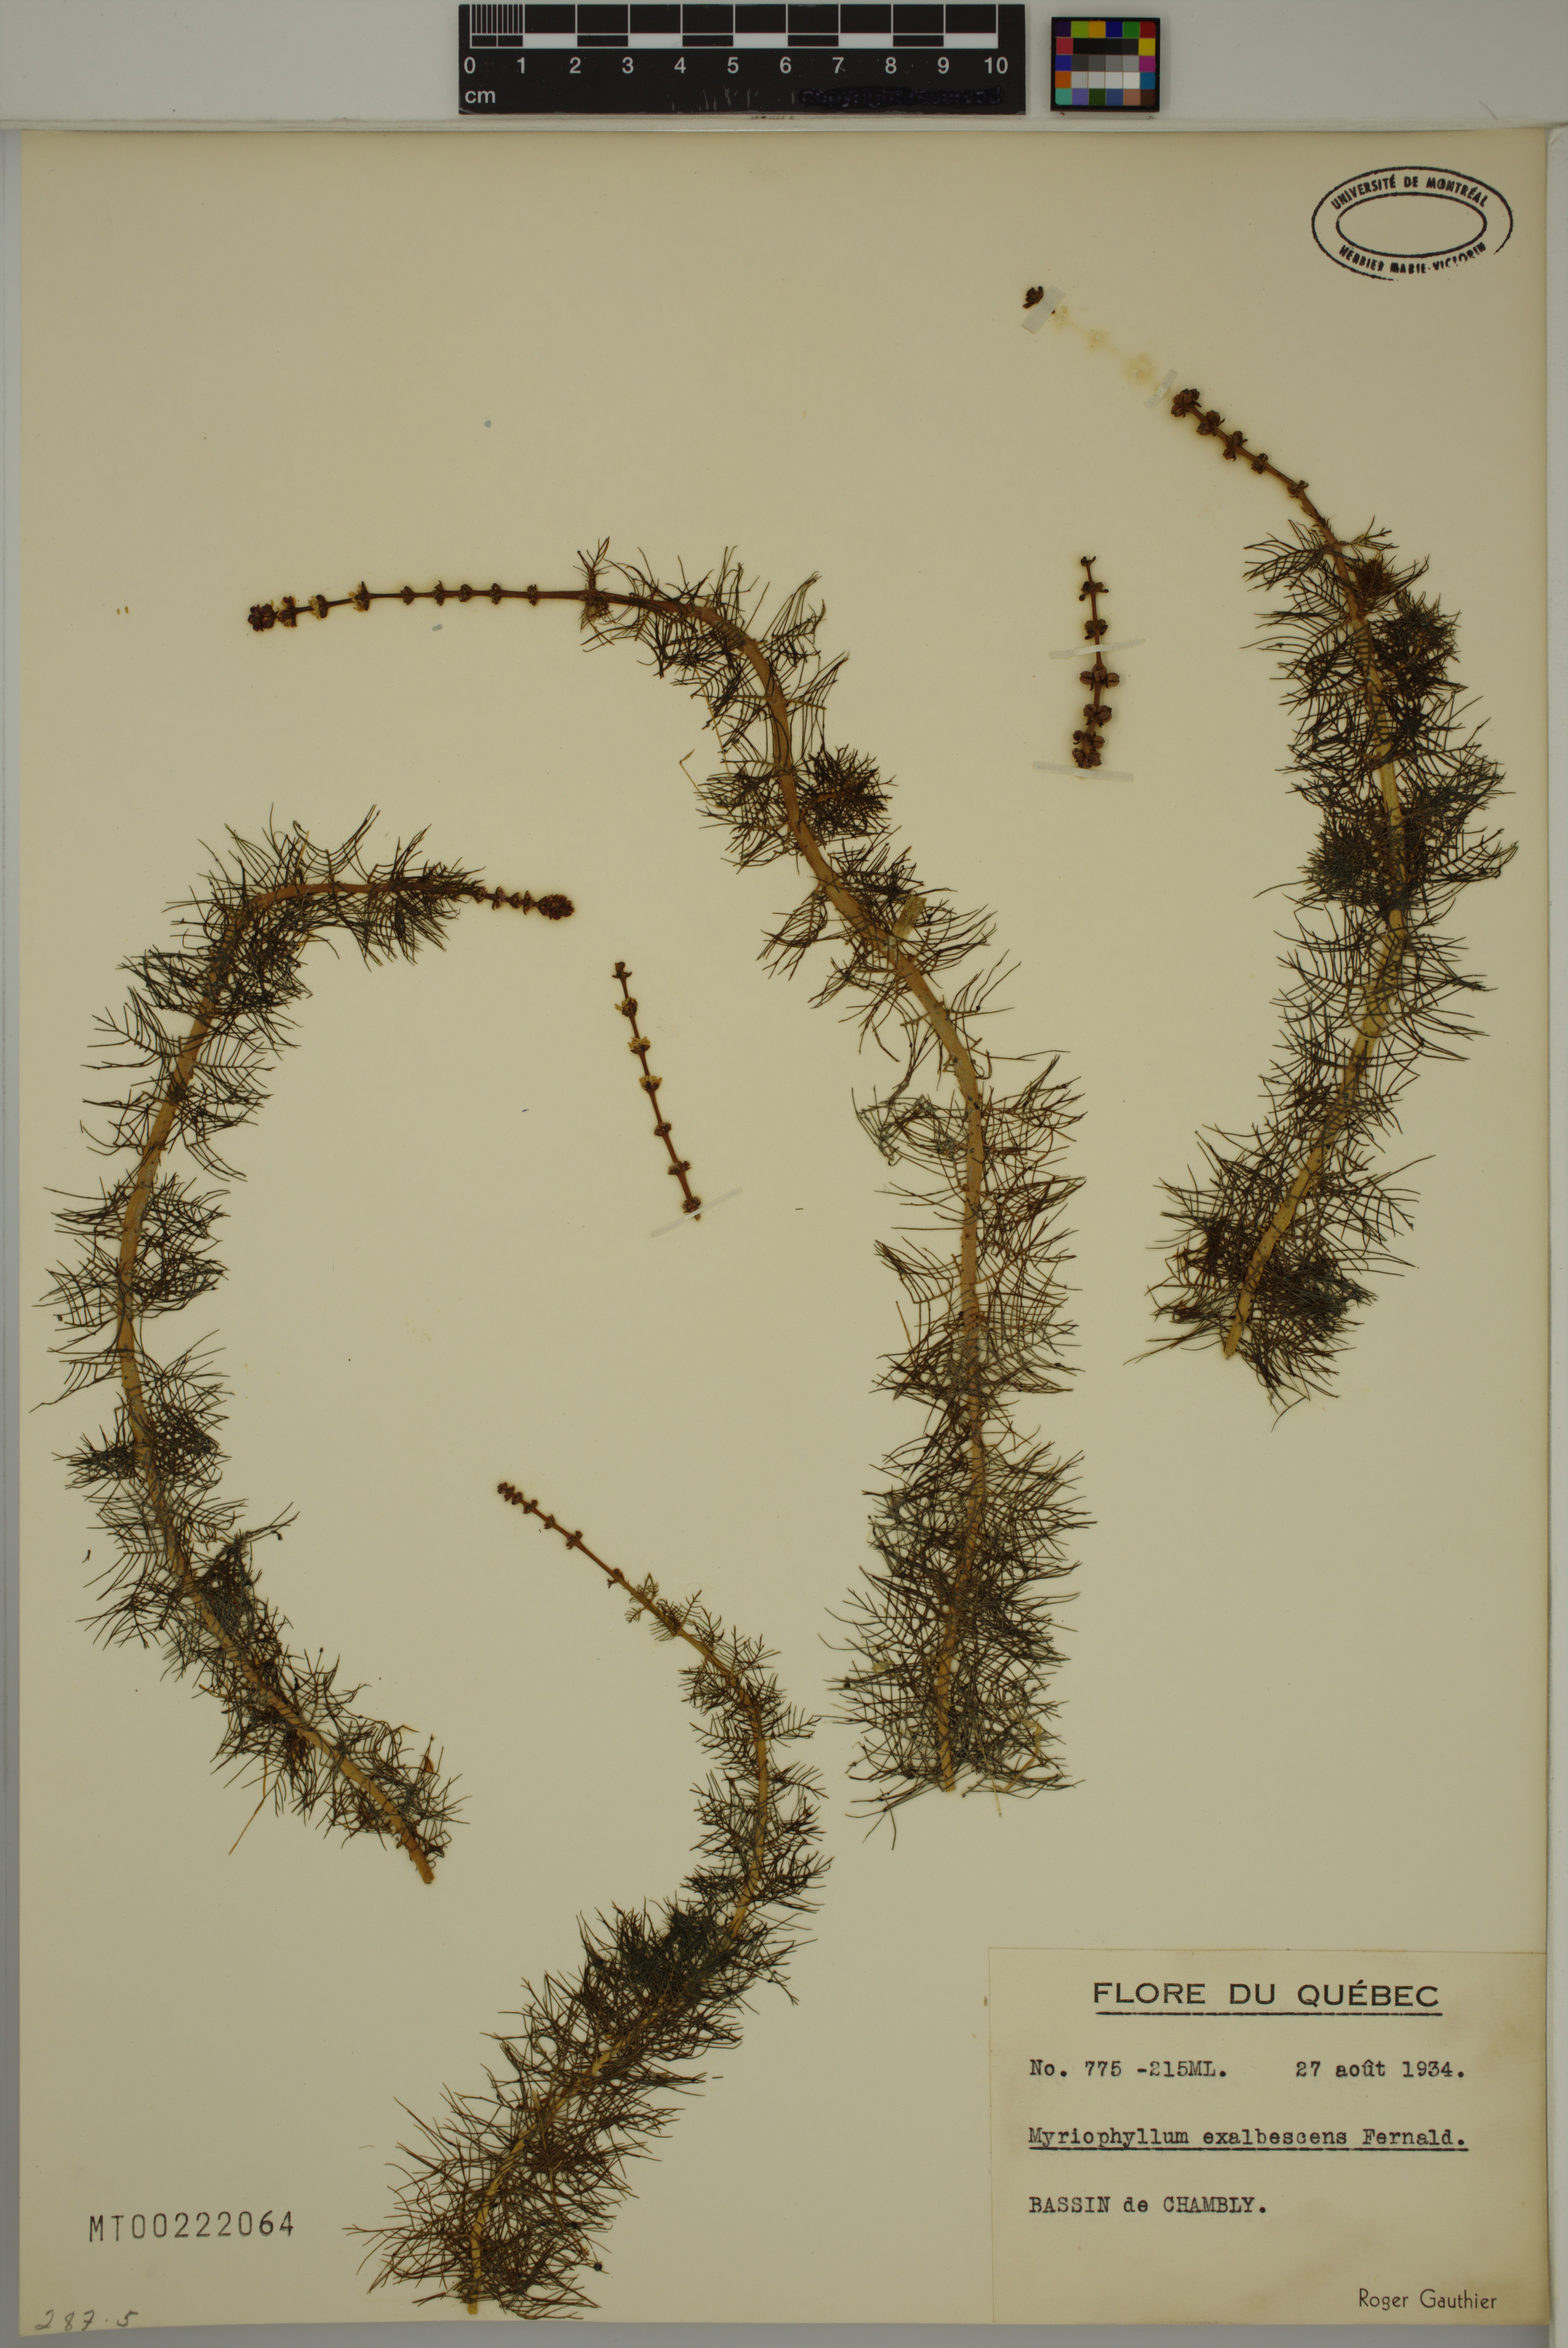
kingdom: Plantae
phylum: Tracheophyta
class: Magnoliopsida
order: Saxifragales
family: Haloragaceae
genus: Myriophyllum
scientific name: Myriophyllum sibiricum
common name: Siberian water-milfoil
